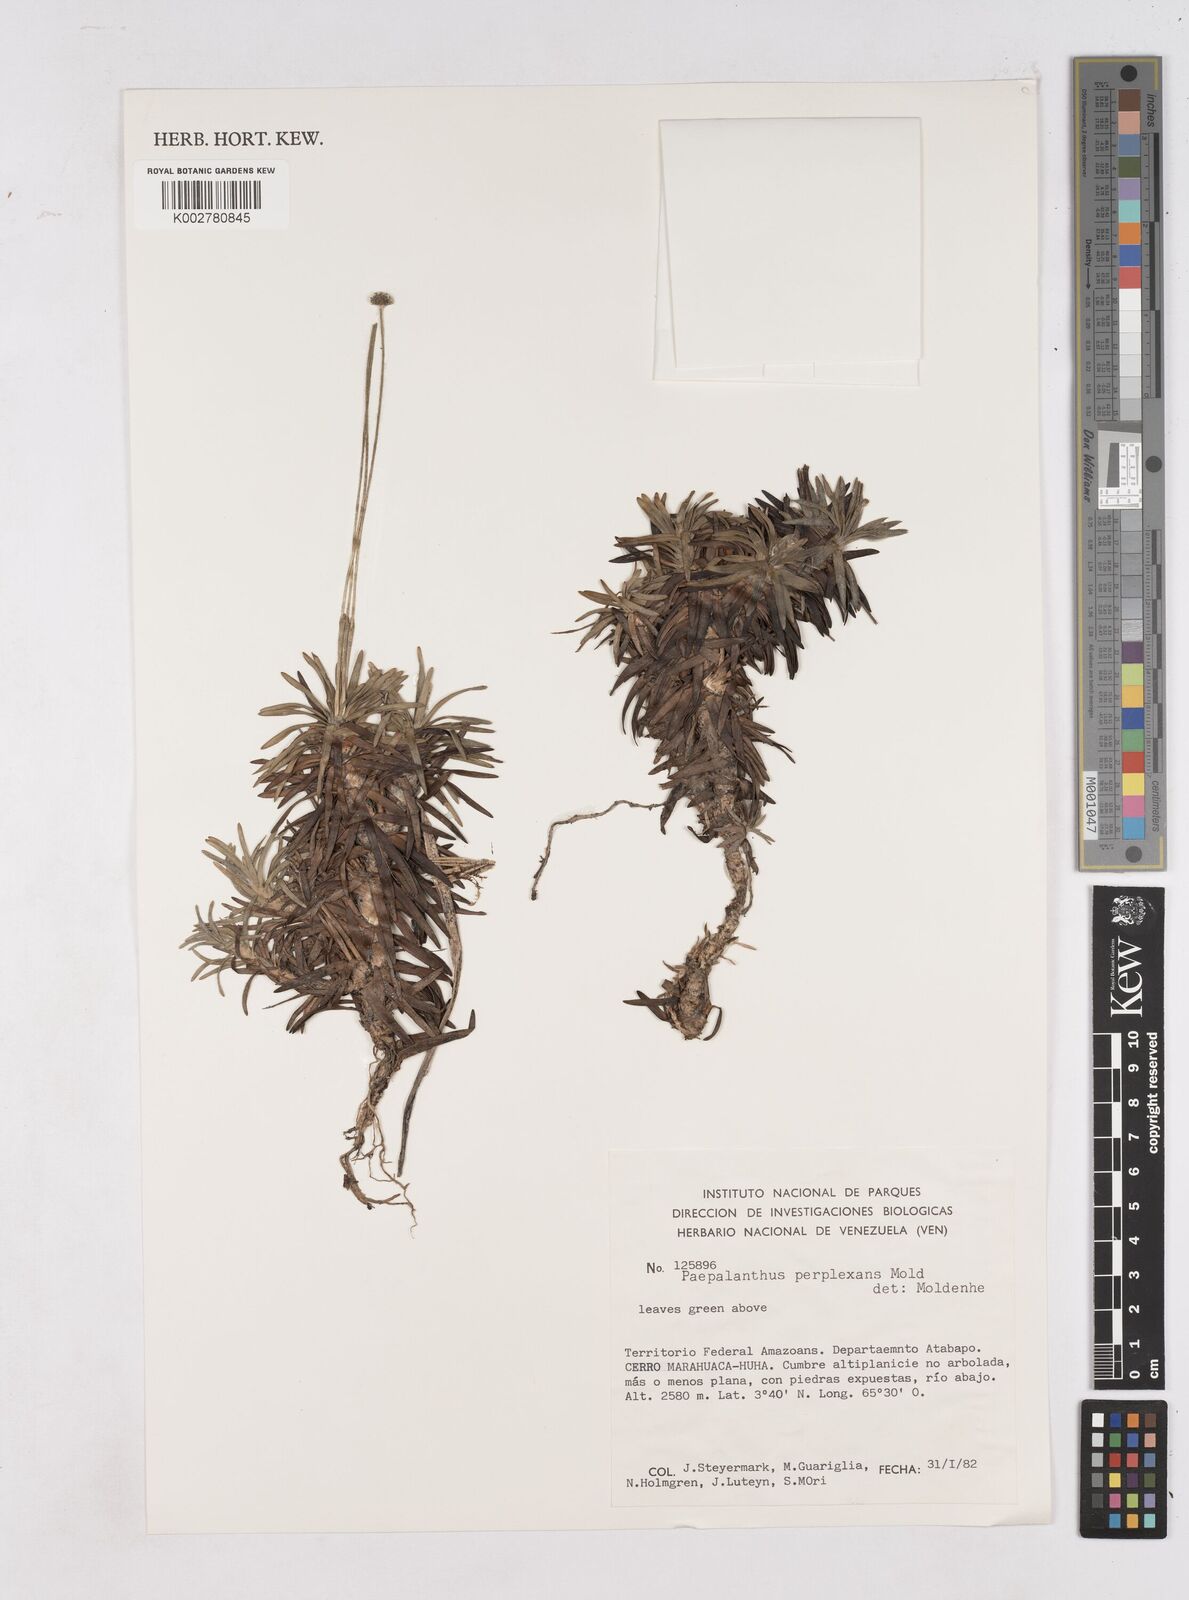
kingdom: Plantae
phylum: Tracheophyta
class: Liliopsida
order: Poales
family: Eriocaulaceae
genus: Paepalanthus
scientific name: Paepalanthus schomburgkii
